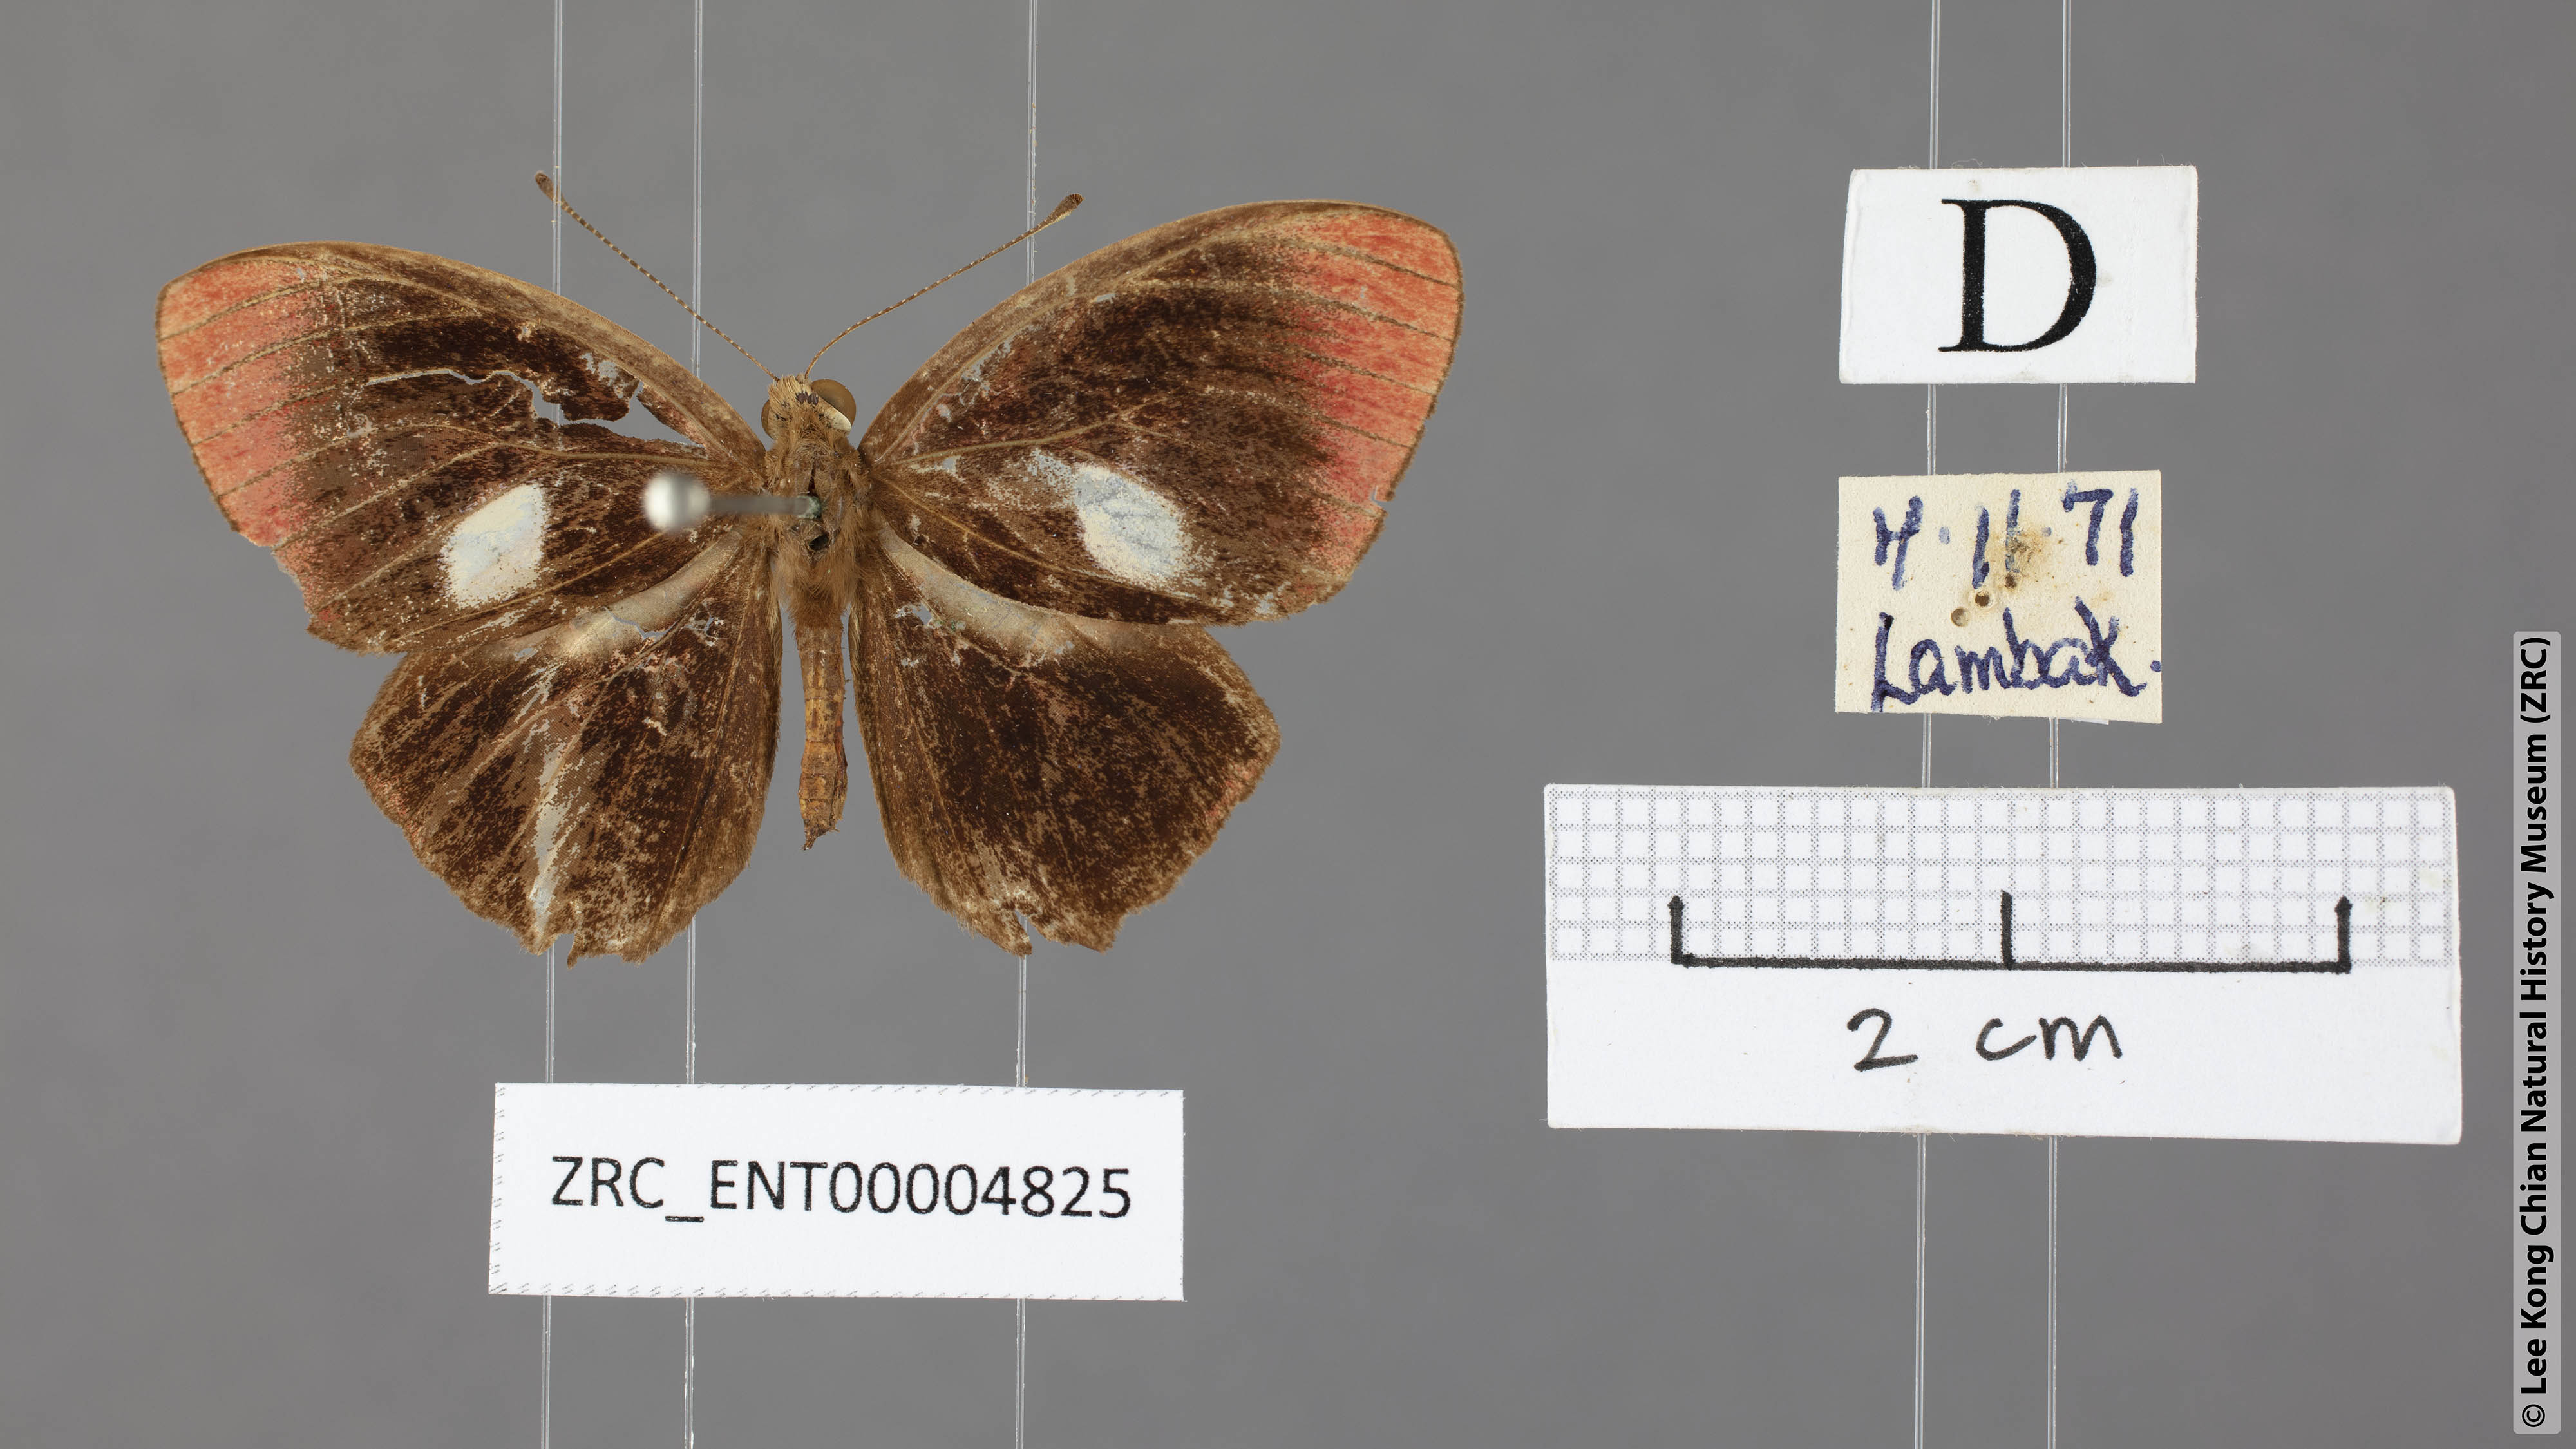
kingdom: Animalia
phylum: Arthropoda
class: Insecta
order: Lepidoptera
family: Lycaenidae
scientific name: Lycaenidae
